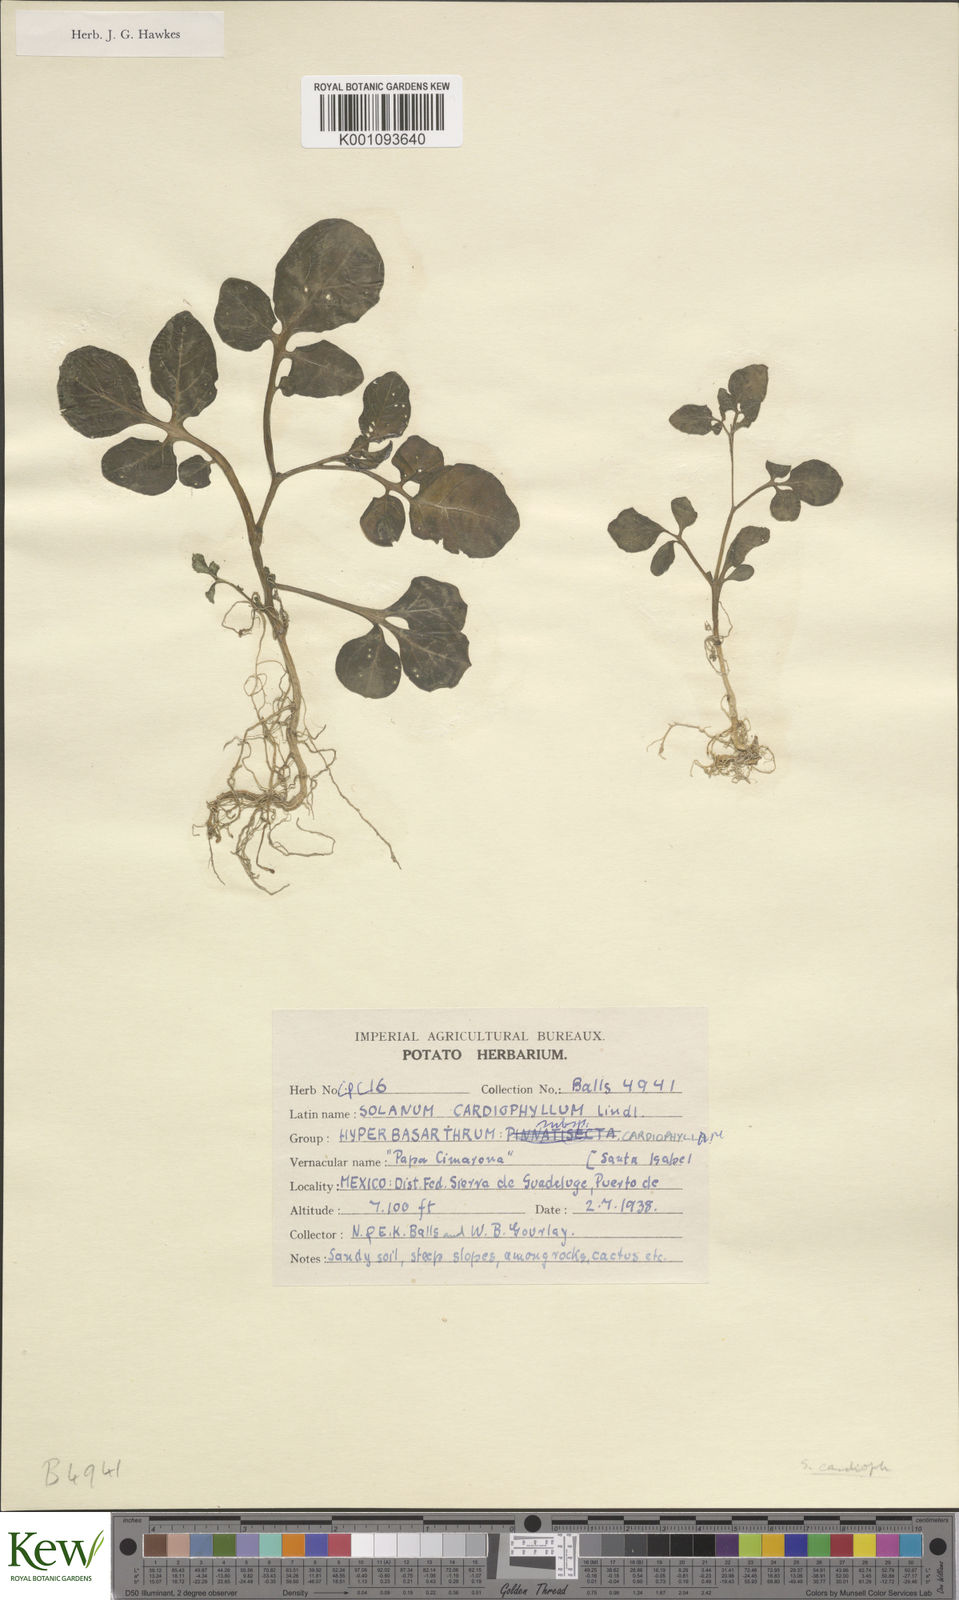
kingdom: Plantae
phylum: Tracheophyta
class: Magnoliopsida
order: Solanales
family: Solanaceae
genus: Solanum
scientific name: Solanum cardiophyllum
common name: Heartleaf horsenettle
